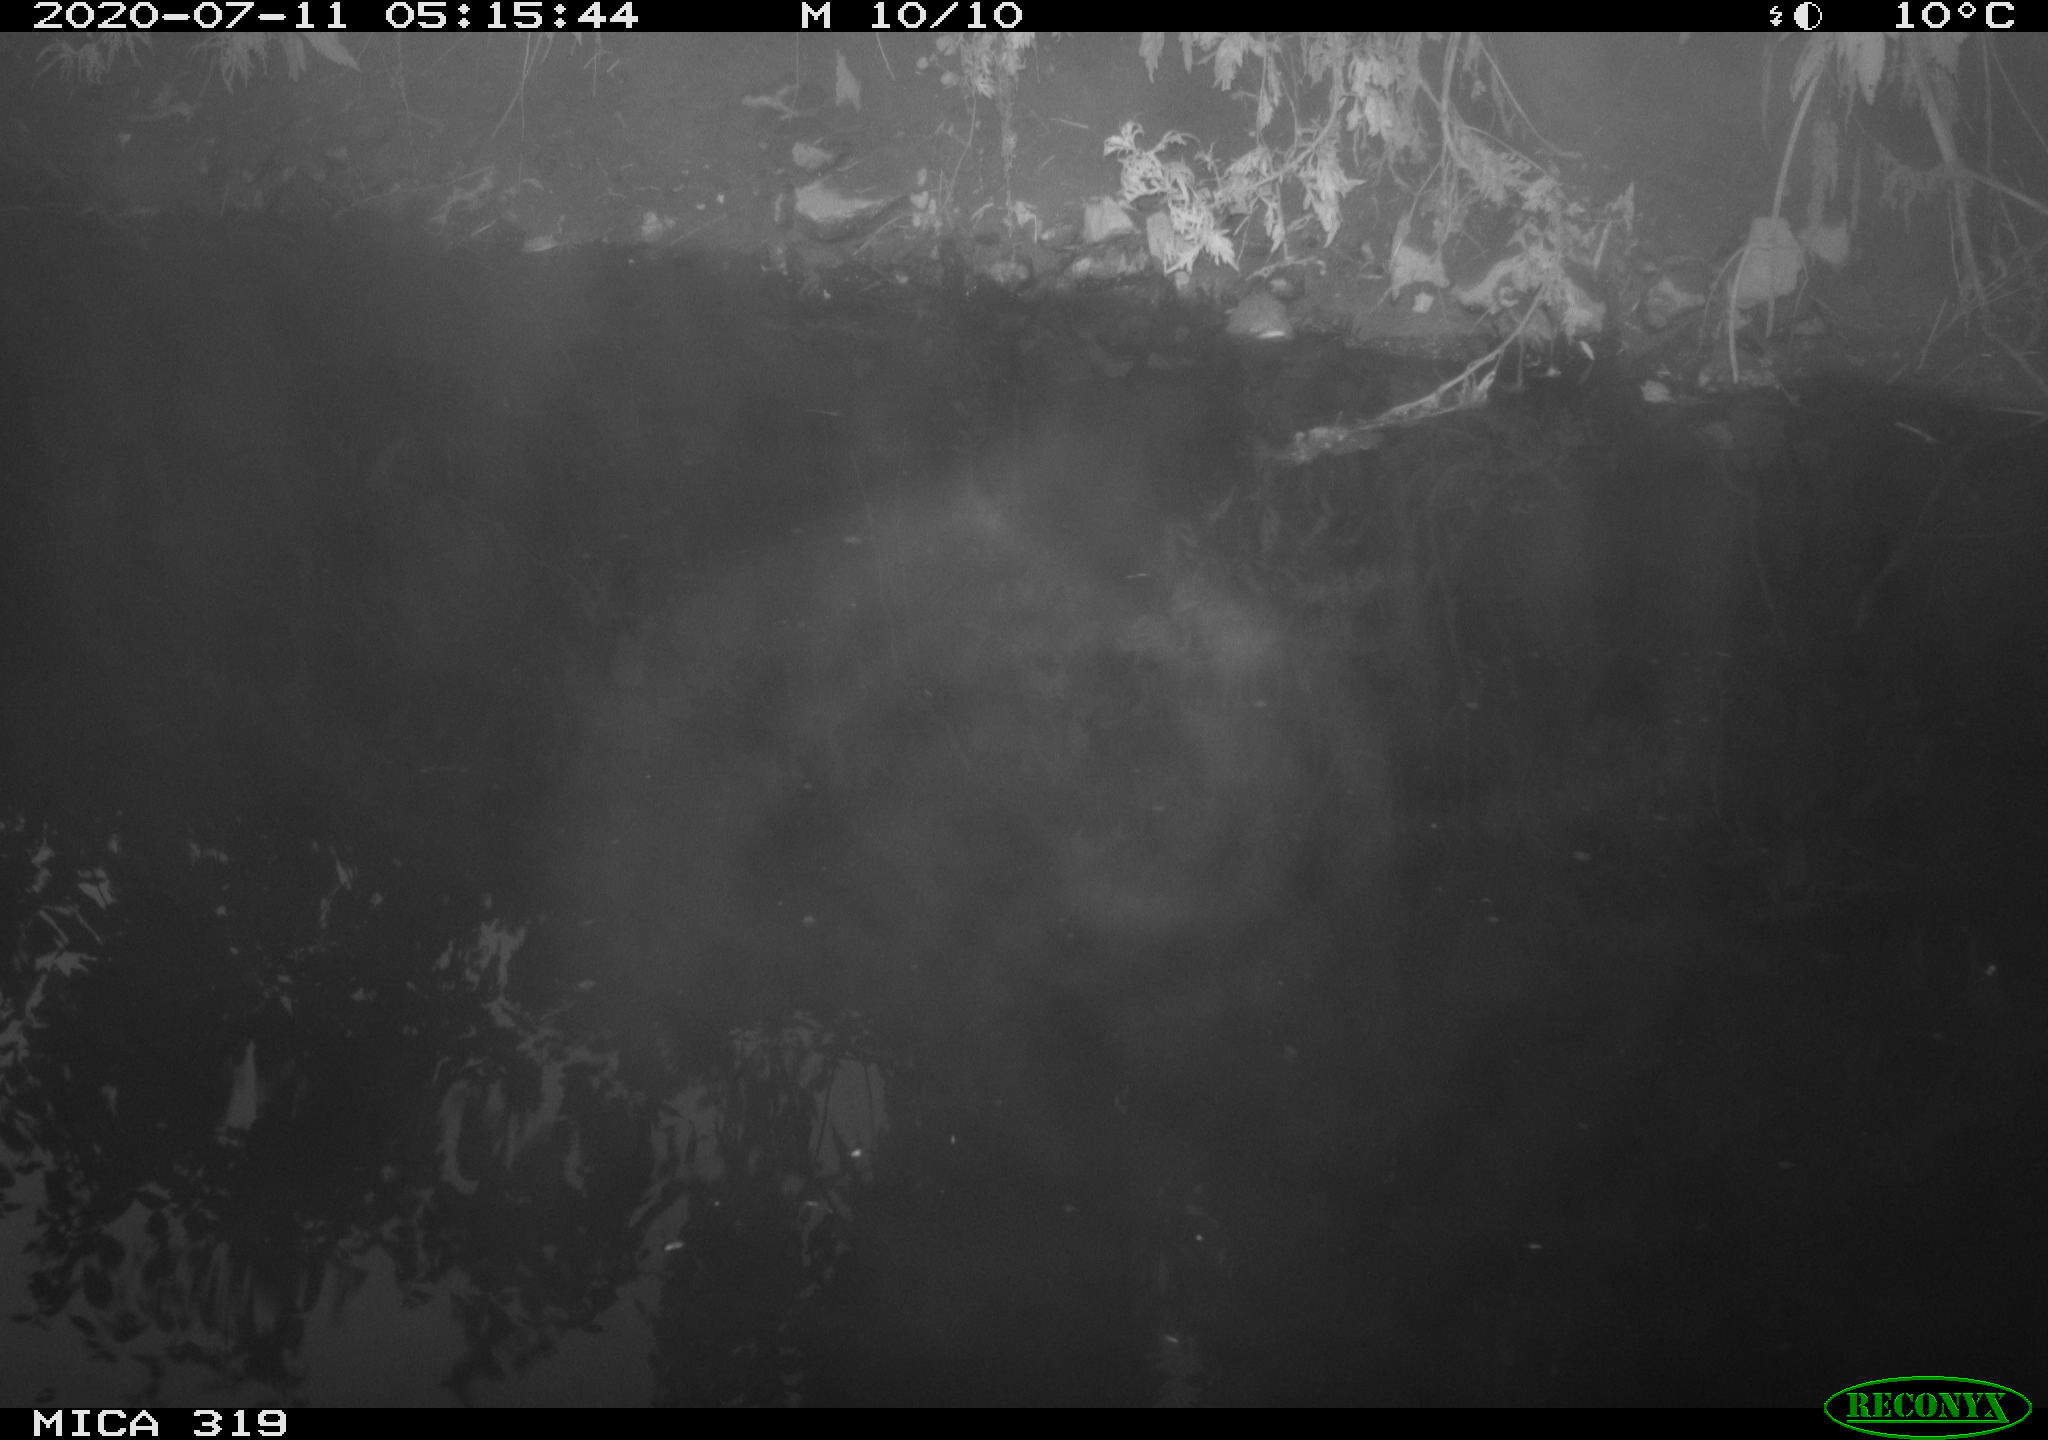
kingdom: Animalia
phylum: Chordata
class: Aves
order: Anseriformes
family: Anatidae
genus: Anas
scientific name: Anas platyrhynchos
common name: Mallard
